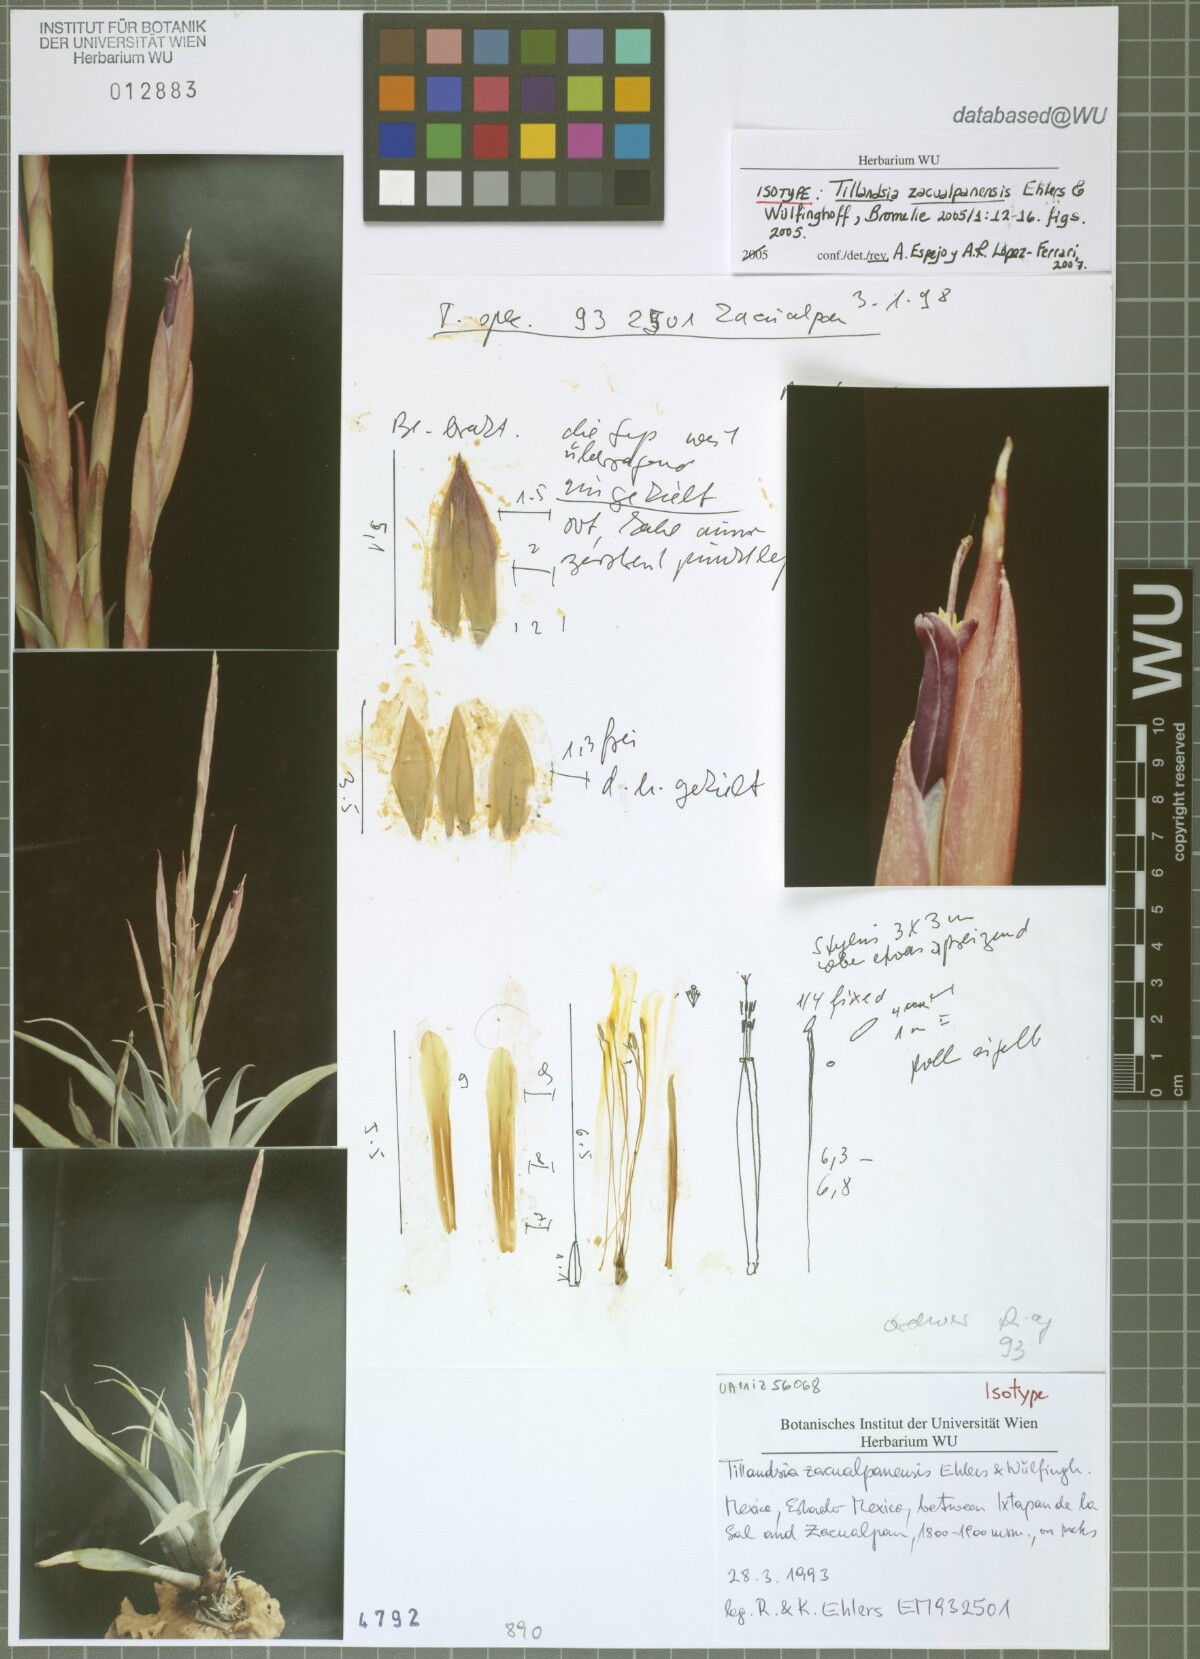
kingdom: Plantae
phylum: Tracheophyta
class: Liliopsida
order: Poales
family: Bromeliaceae
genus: Tillandsia
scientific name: Tillandsia zacualpanensis
